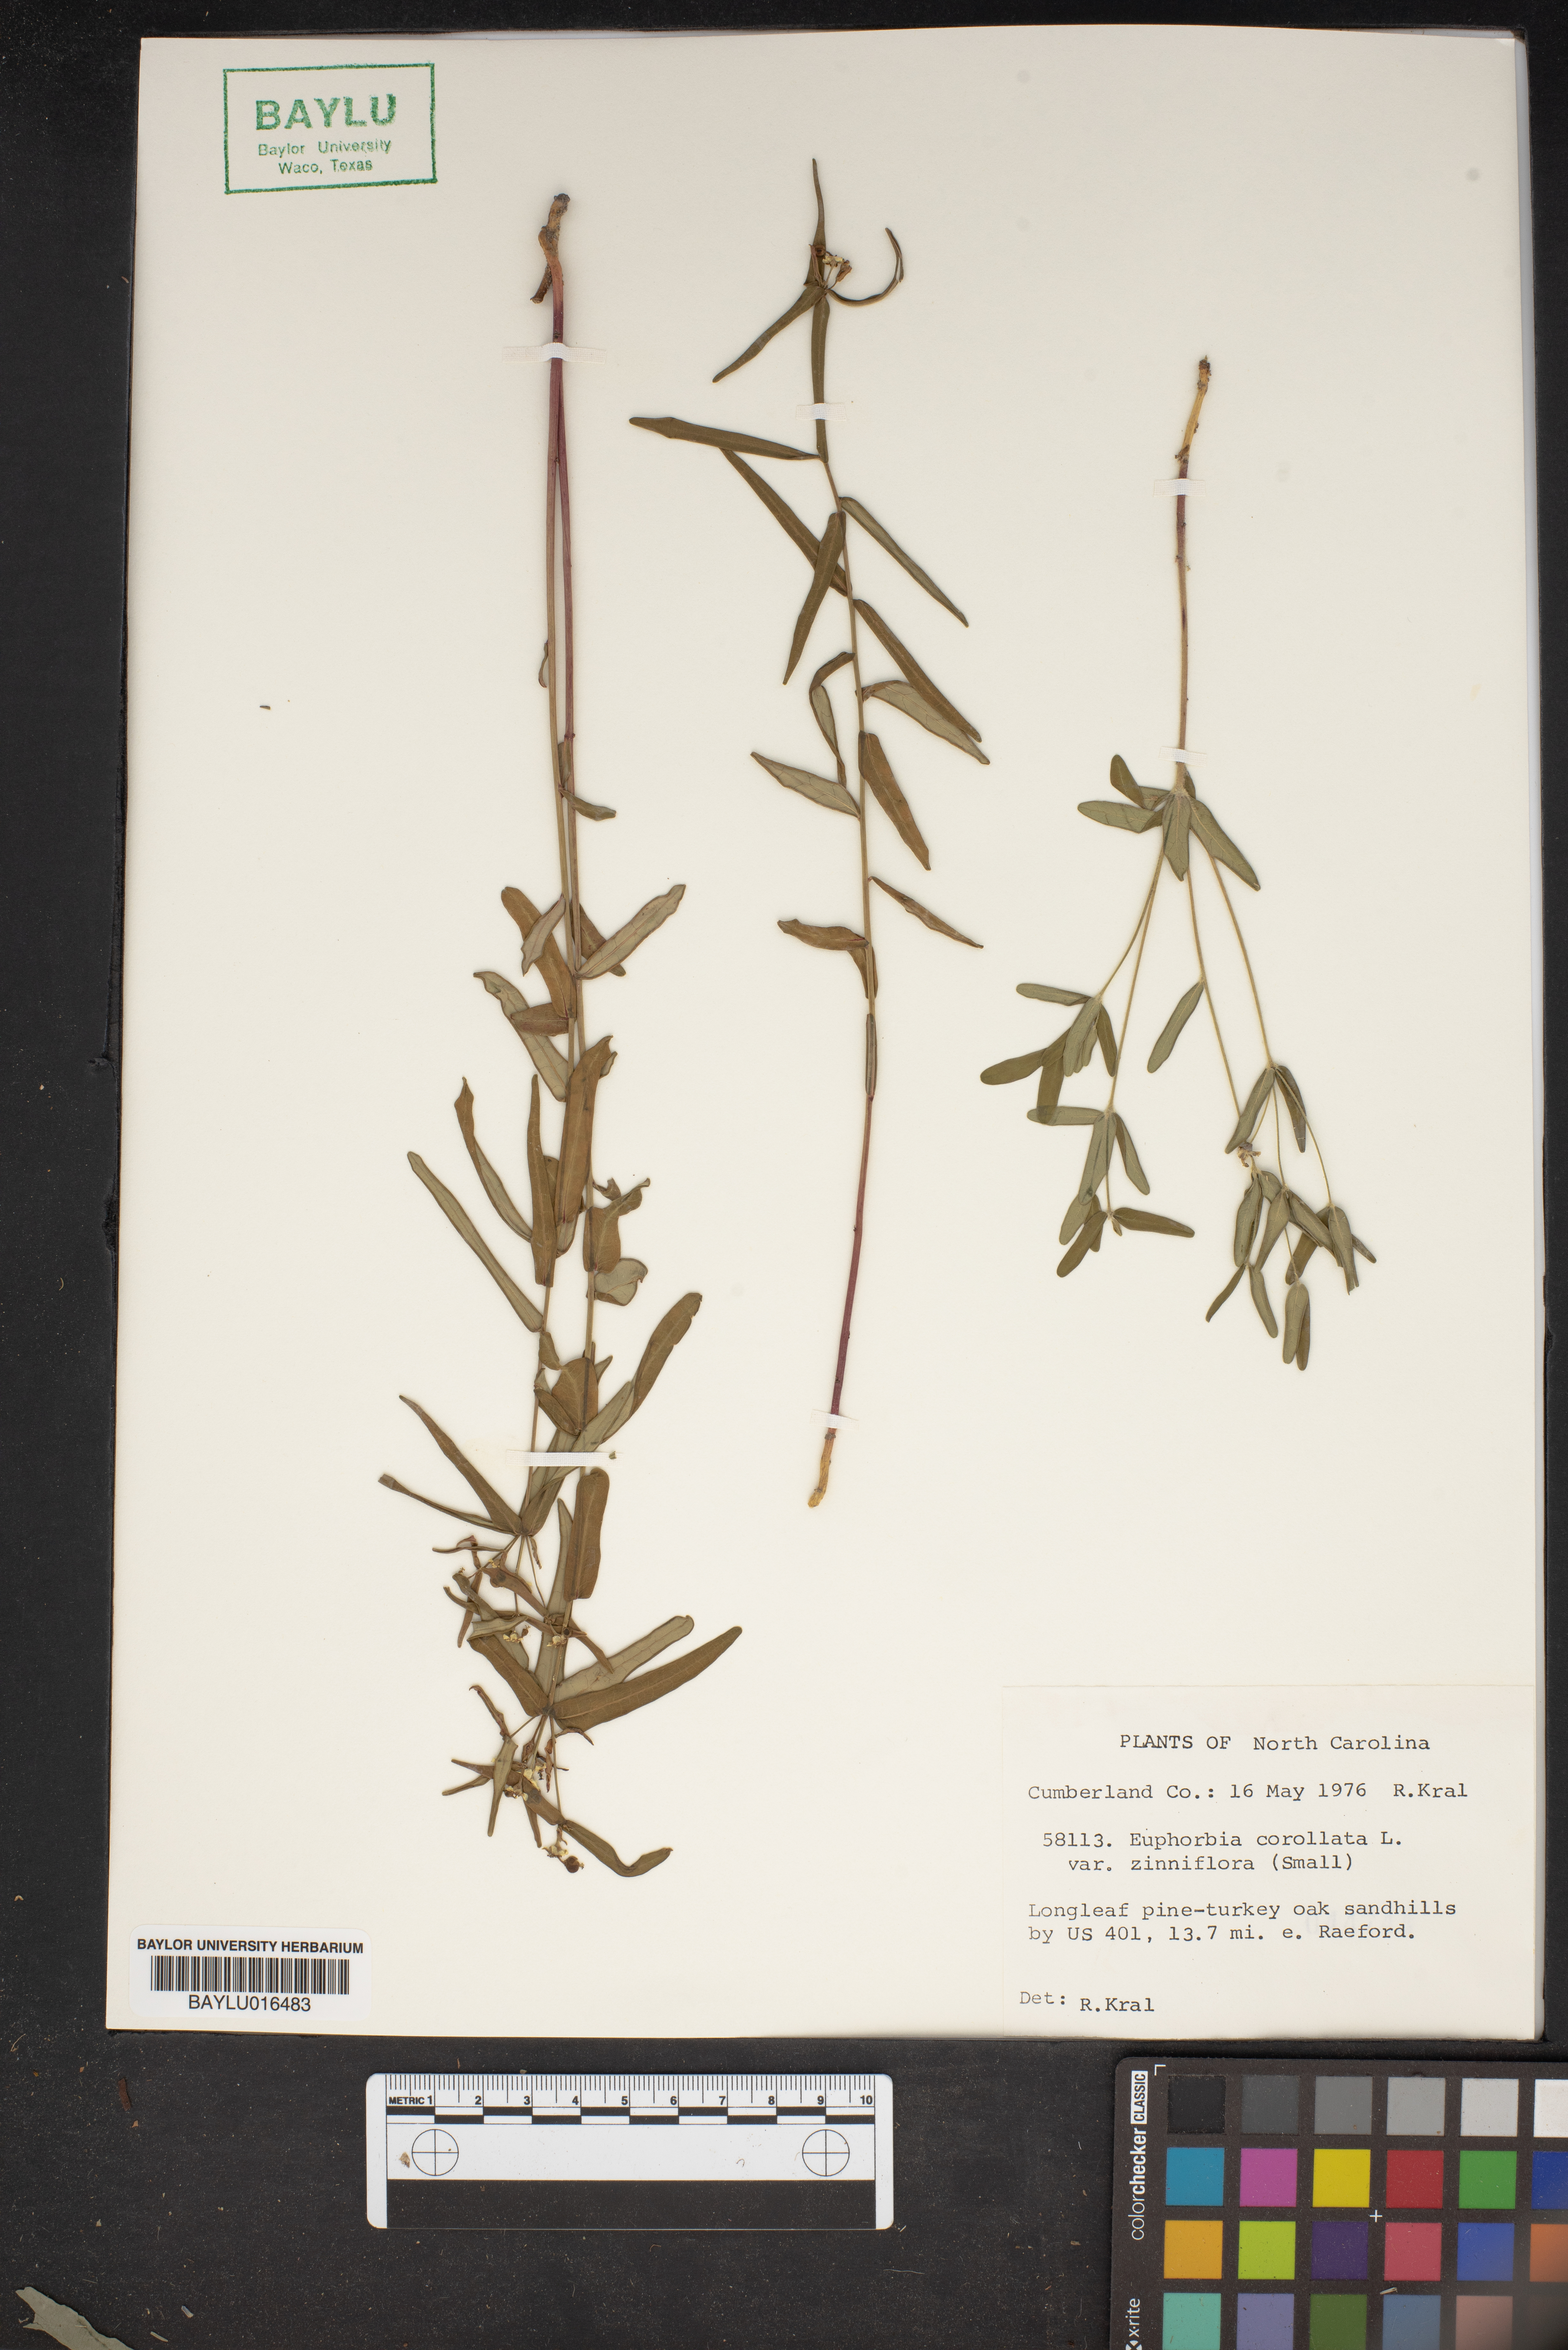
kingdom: Plantae
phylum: Tracheophyta
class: Magnoliopsida
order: Malpighiales
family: Euphorbiaceae
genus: Euphorbia
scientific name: Euphorbia corollata
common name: Flowering spurge
